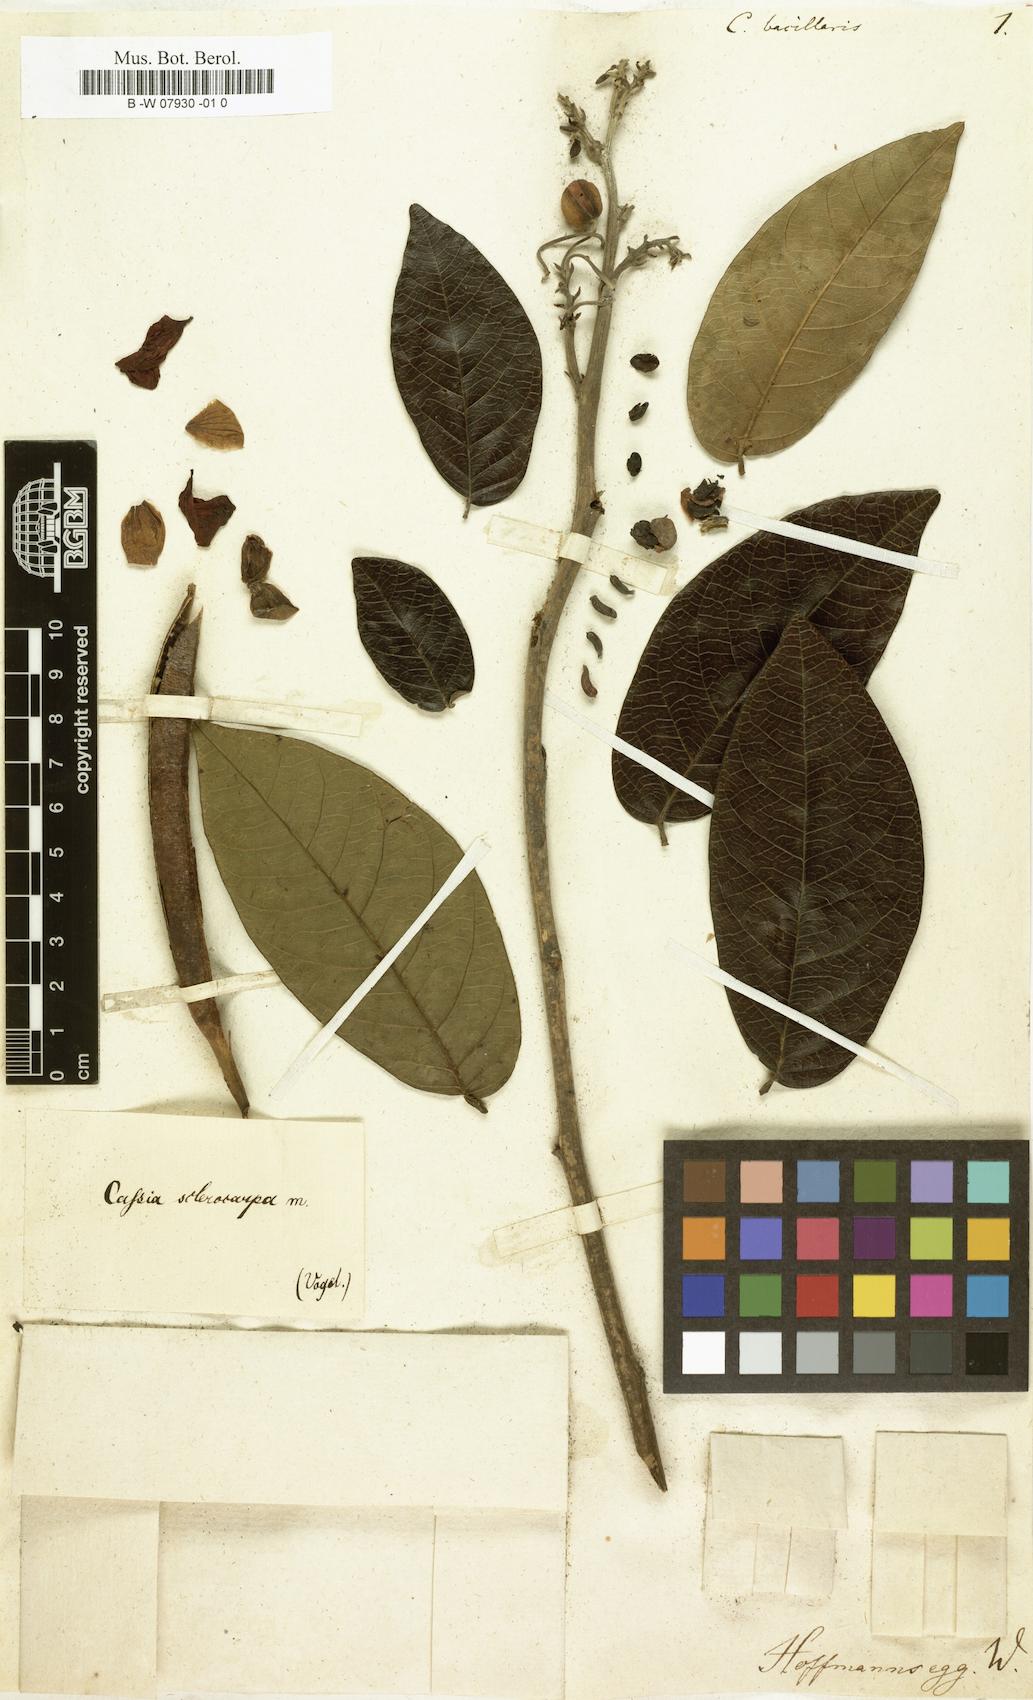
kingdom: Plantae
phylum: Tracheophyta
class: Magnoliopsida
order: Fabales
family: Fabaceae
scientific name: Fabaceae
